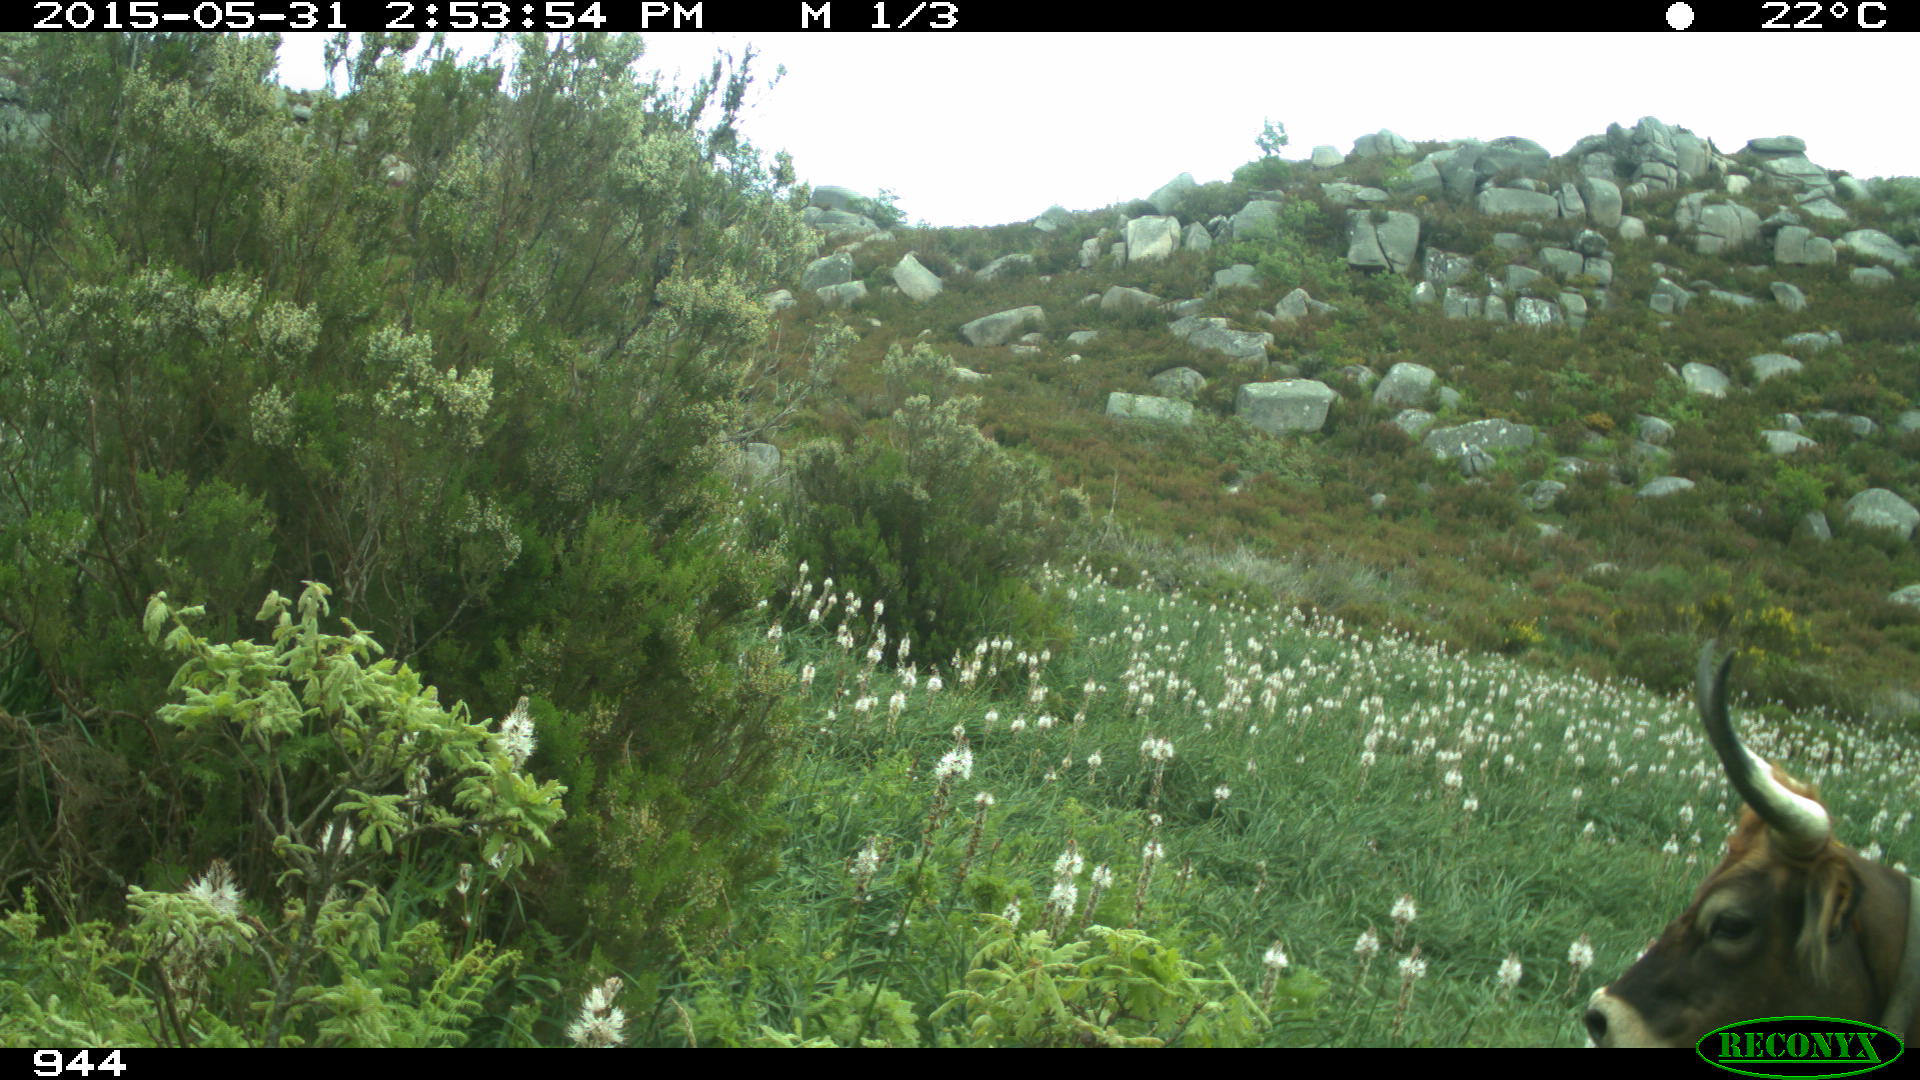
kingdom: Animalia
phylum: Chordata
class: Mammalia
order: Artiodactyla
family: Bovidae
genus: Bos
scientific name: Bos taurus
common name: Domesticated cattle
